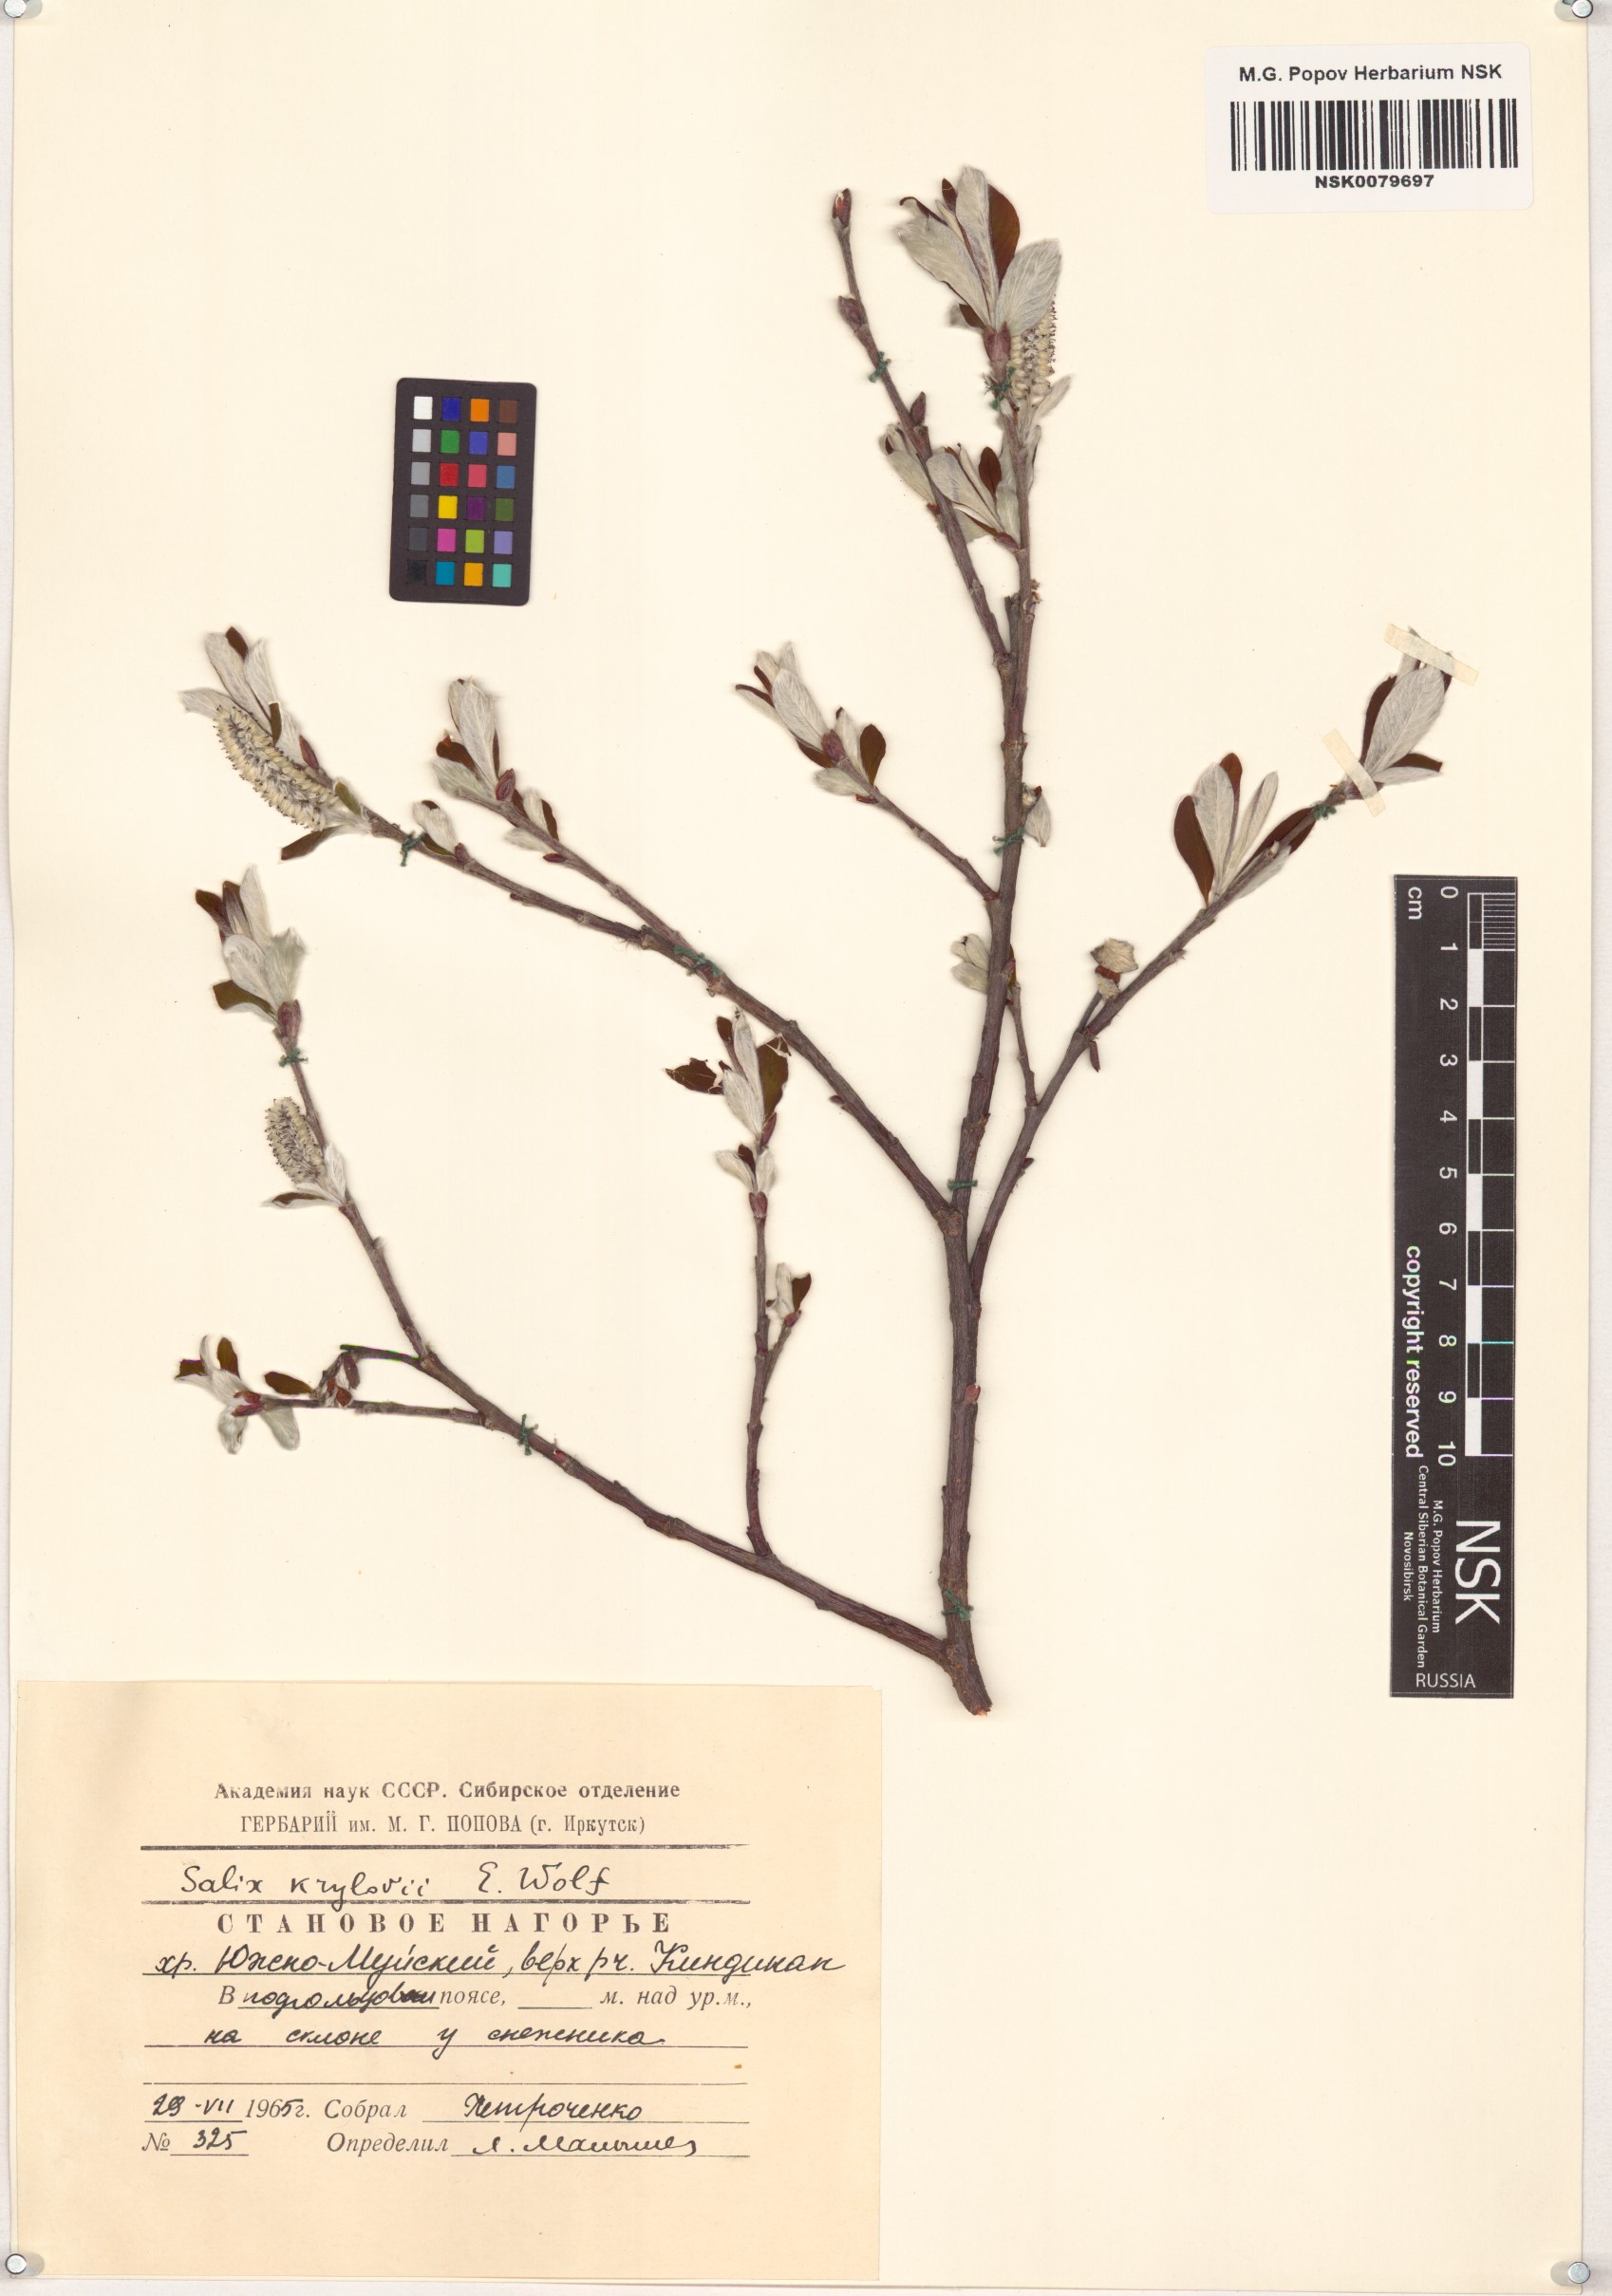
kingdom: Plantae
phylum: Tracheophyta
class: Magnoliopsida
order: Malpighiales
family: Salicaceae
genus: Salix
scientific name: Salix krylovii
